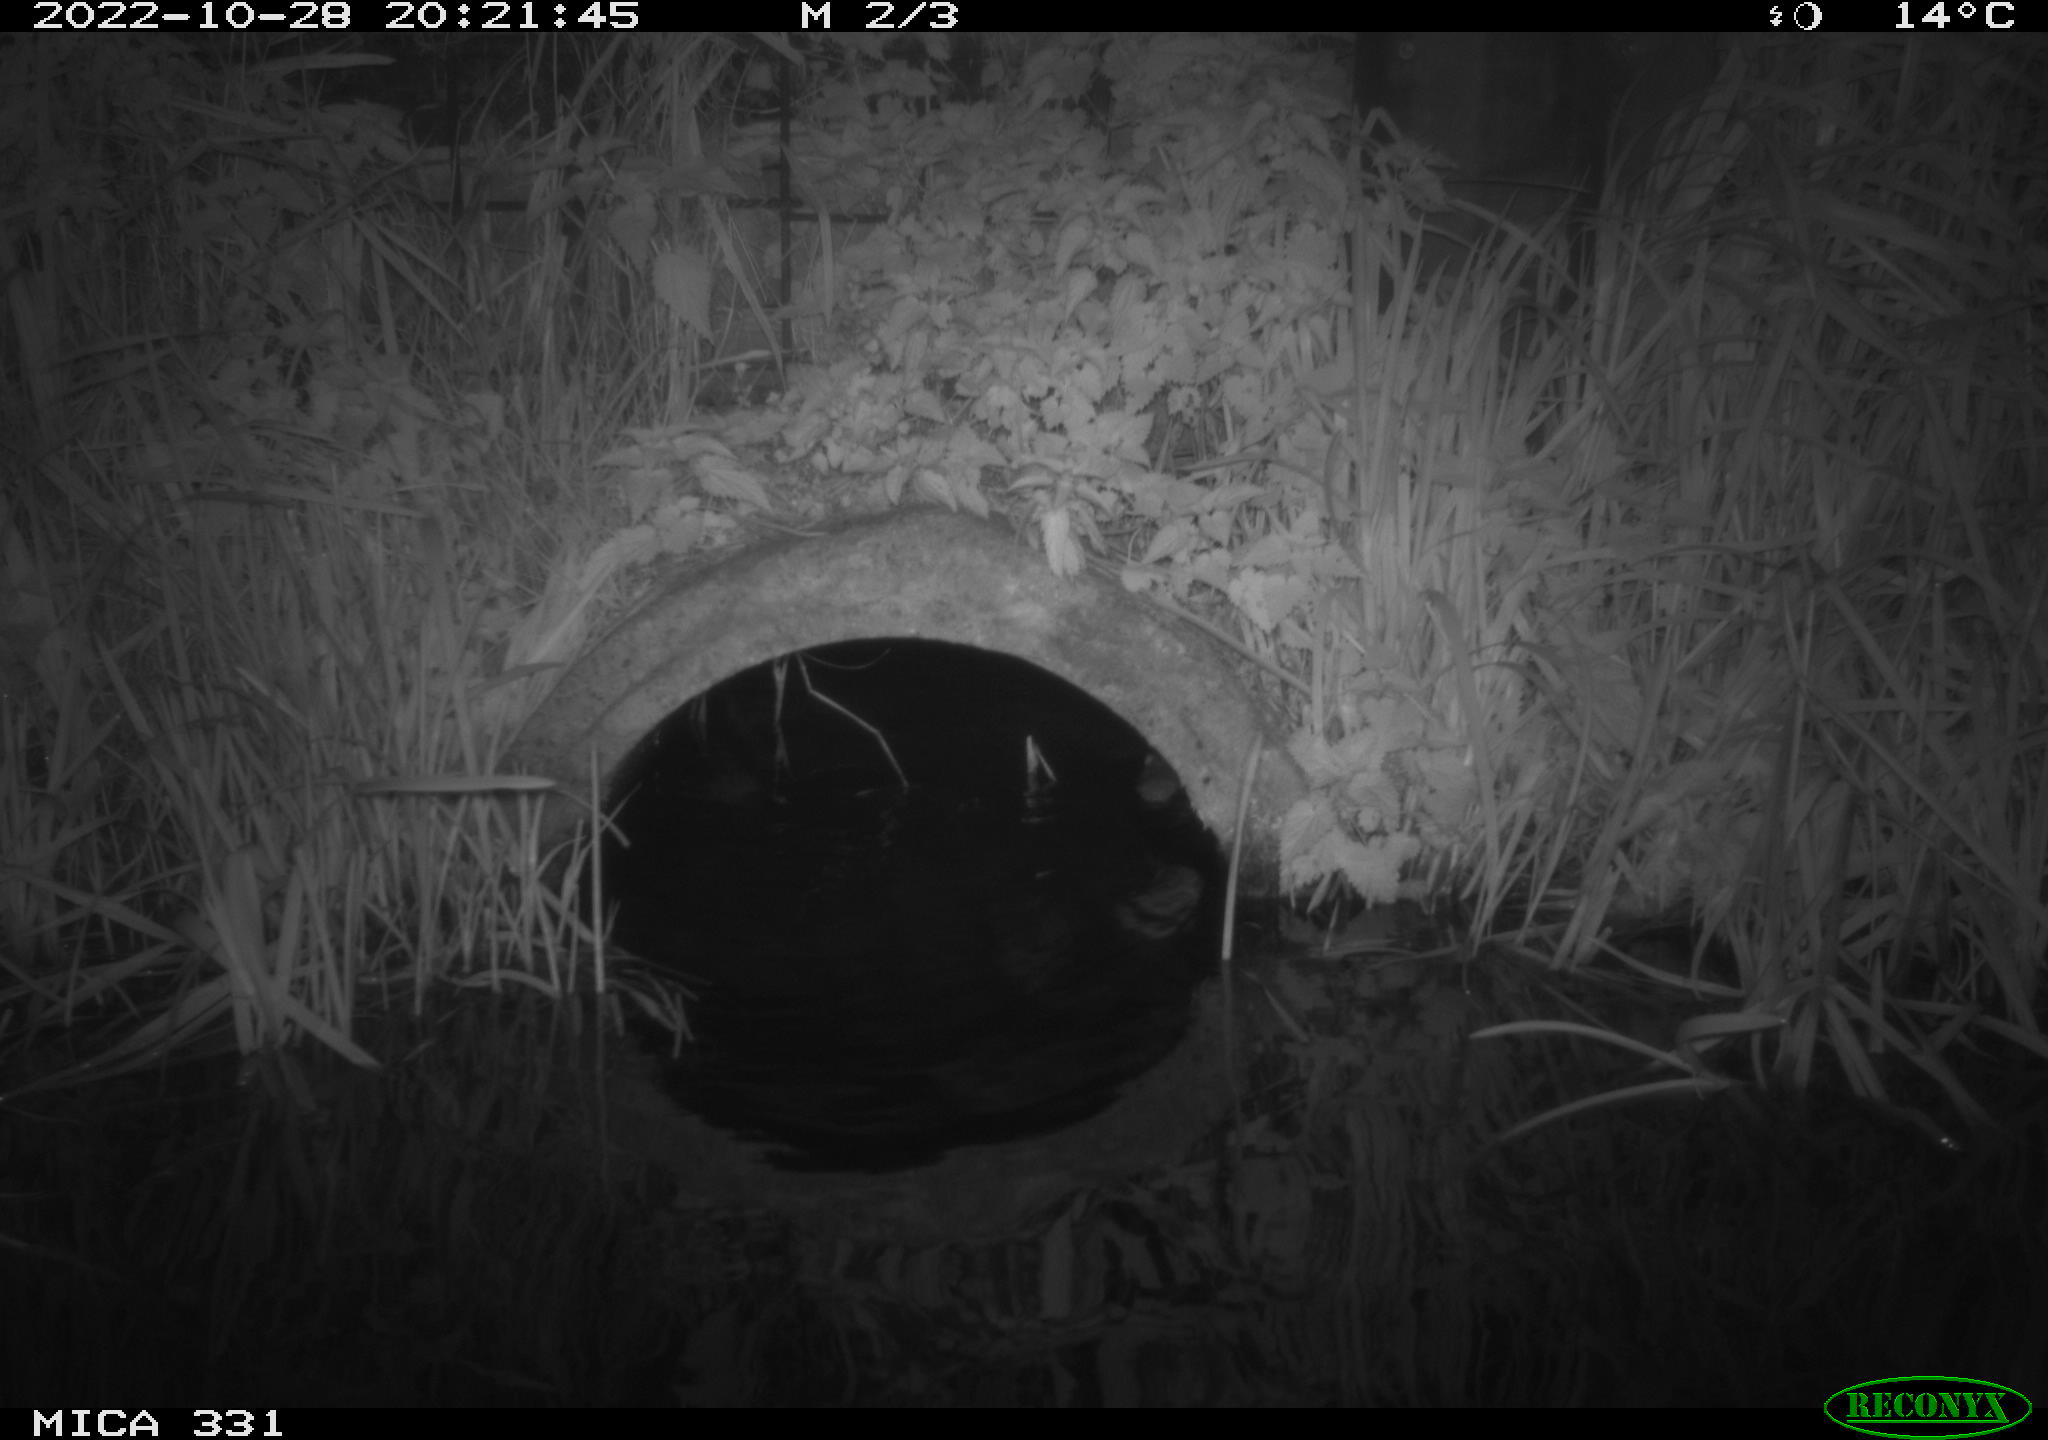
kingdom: Animalia
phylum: Chordata
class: Mammalia
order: Rodentia
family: Muridae
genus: Rattus
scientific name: Rattus norvegicus
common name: Brown rat
